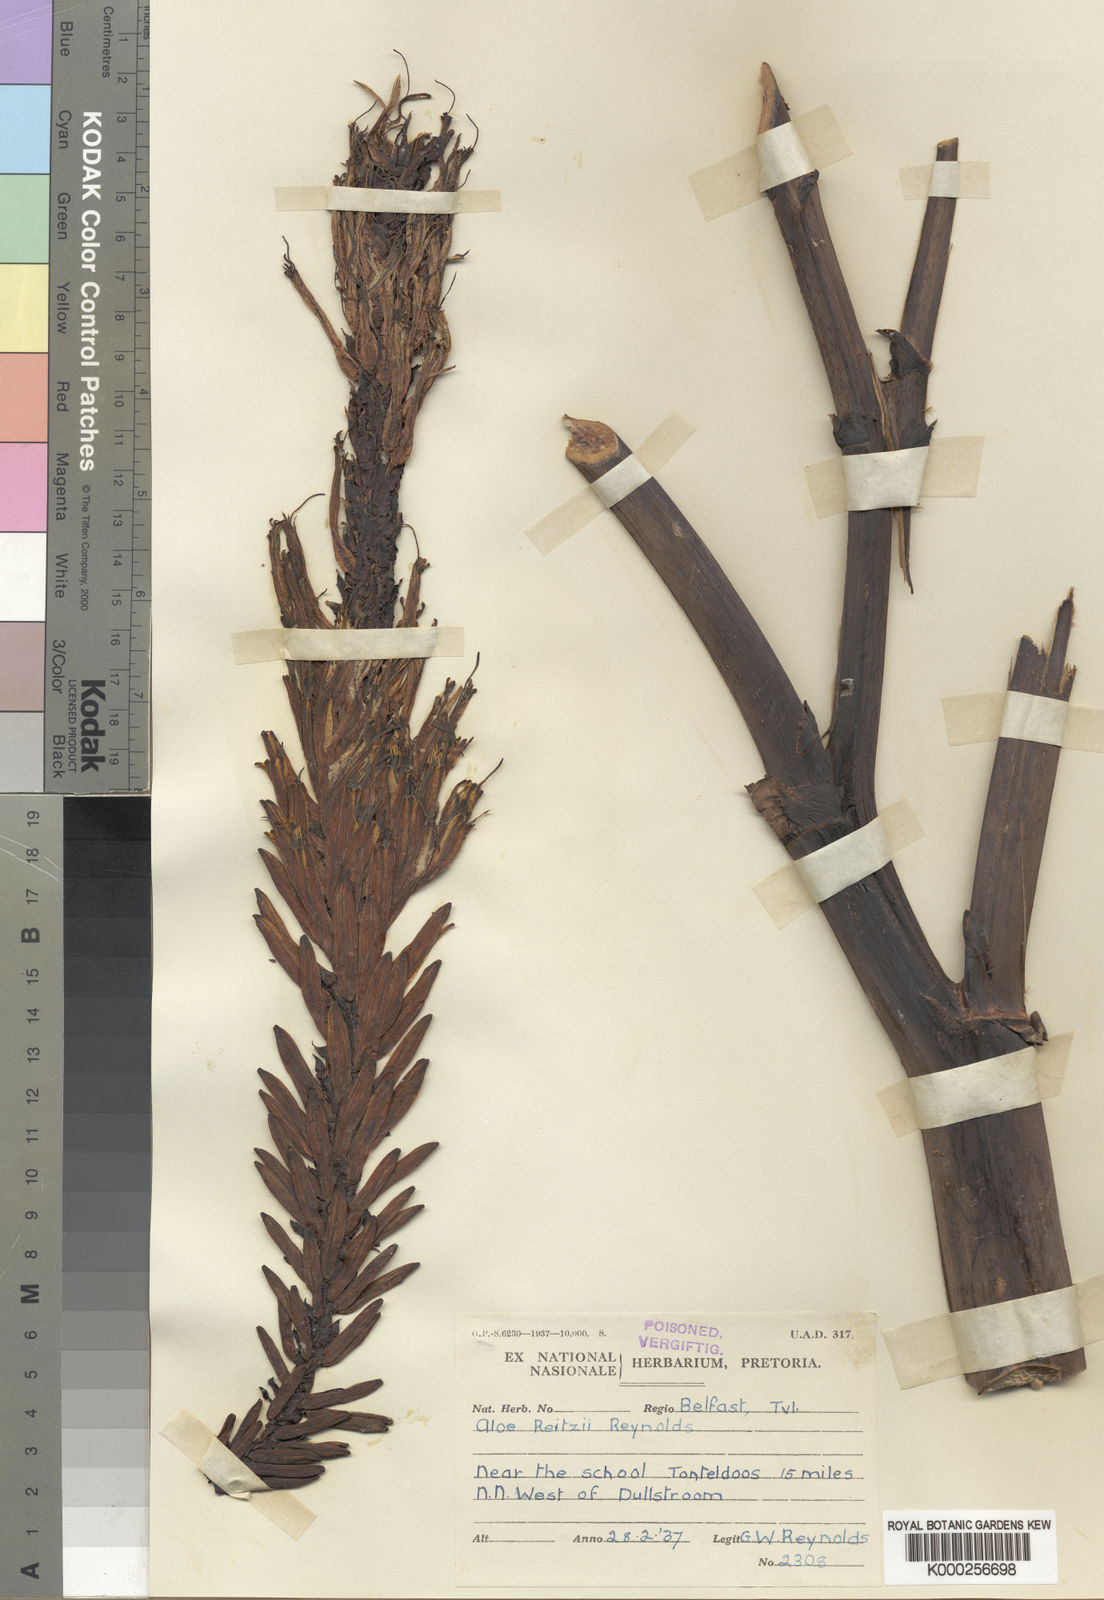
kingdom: Plantae
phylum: Tracheophyta
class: Liliopsida
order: Asparagales
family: Asphodelaceae
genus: Aloe
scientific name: Aloe reitzii
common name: Reitz's aloe
